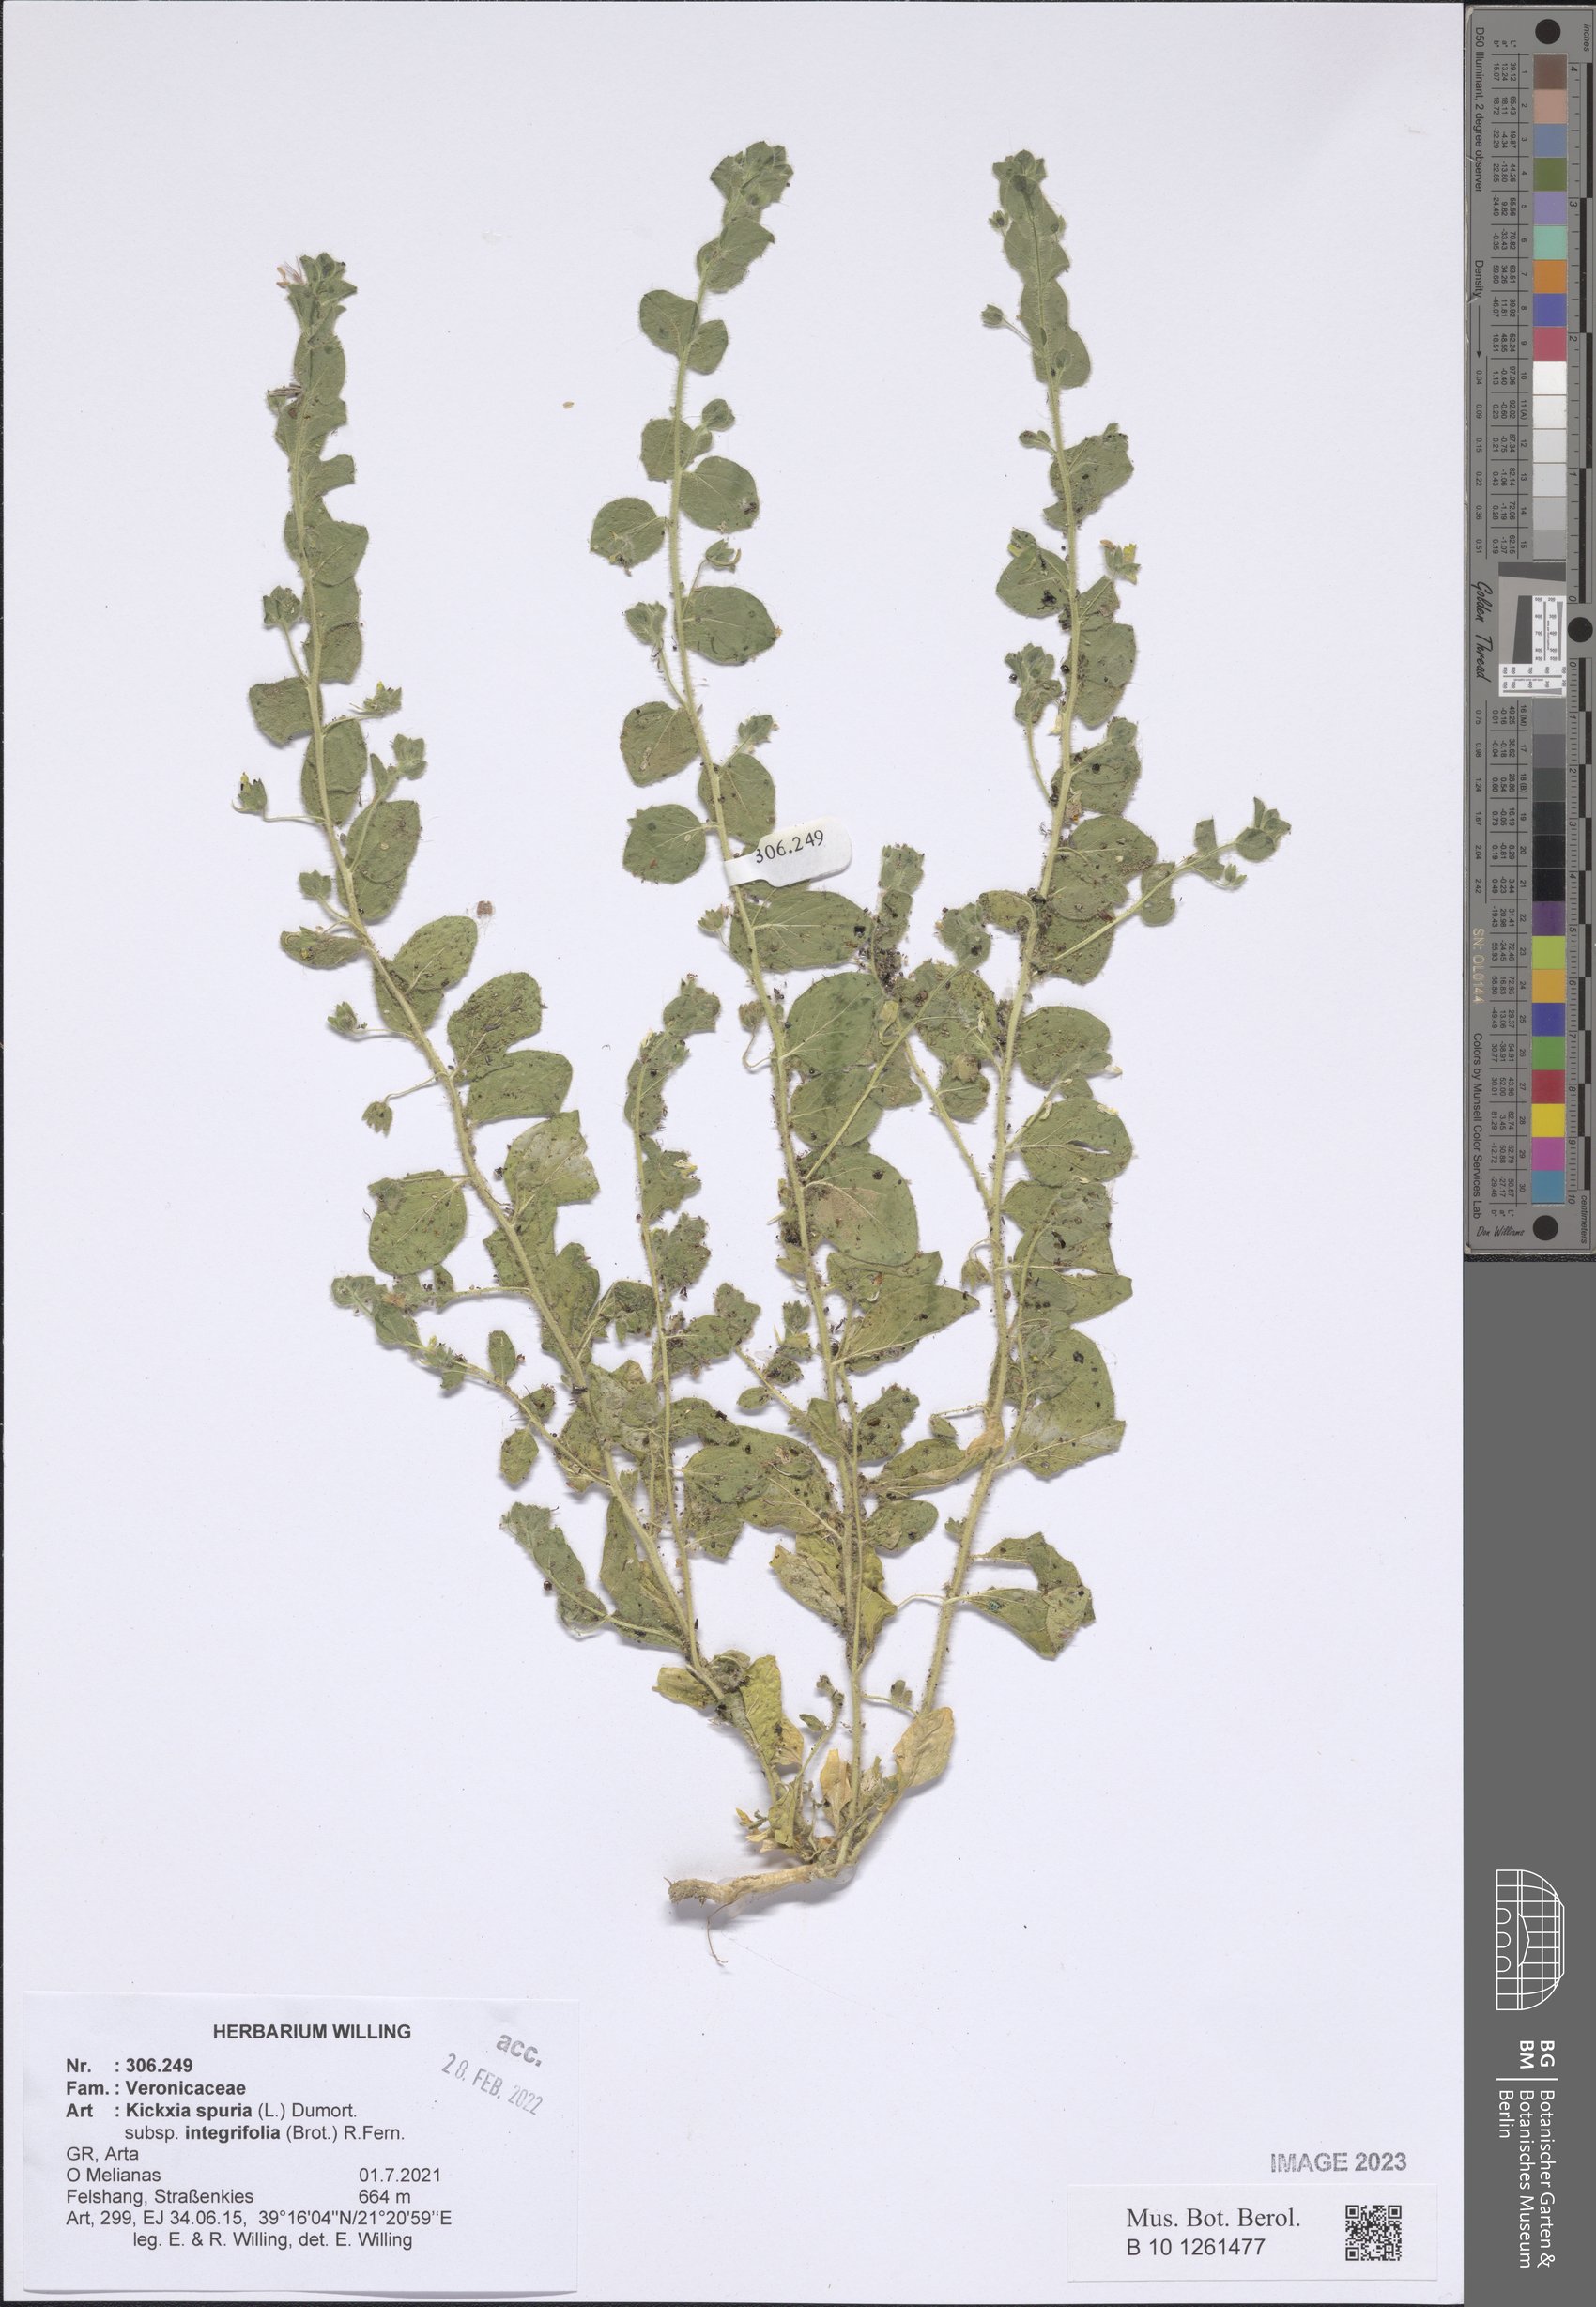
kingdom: Plantae
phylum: Tracheophyta
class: Magnoliopsida
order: Lamiales
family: Plantaginaceae
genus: Kickxia
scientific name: Kickxia spuria
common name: Round-leaved fluellen
